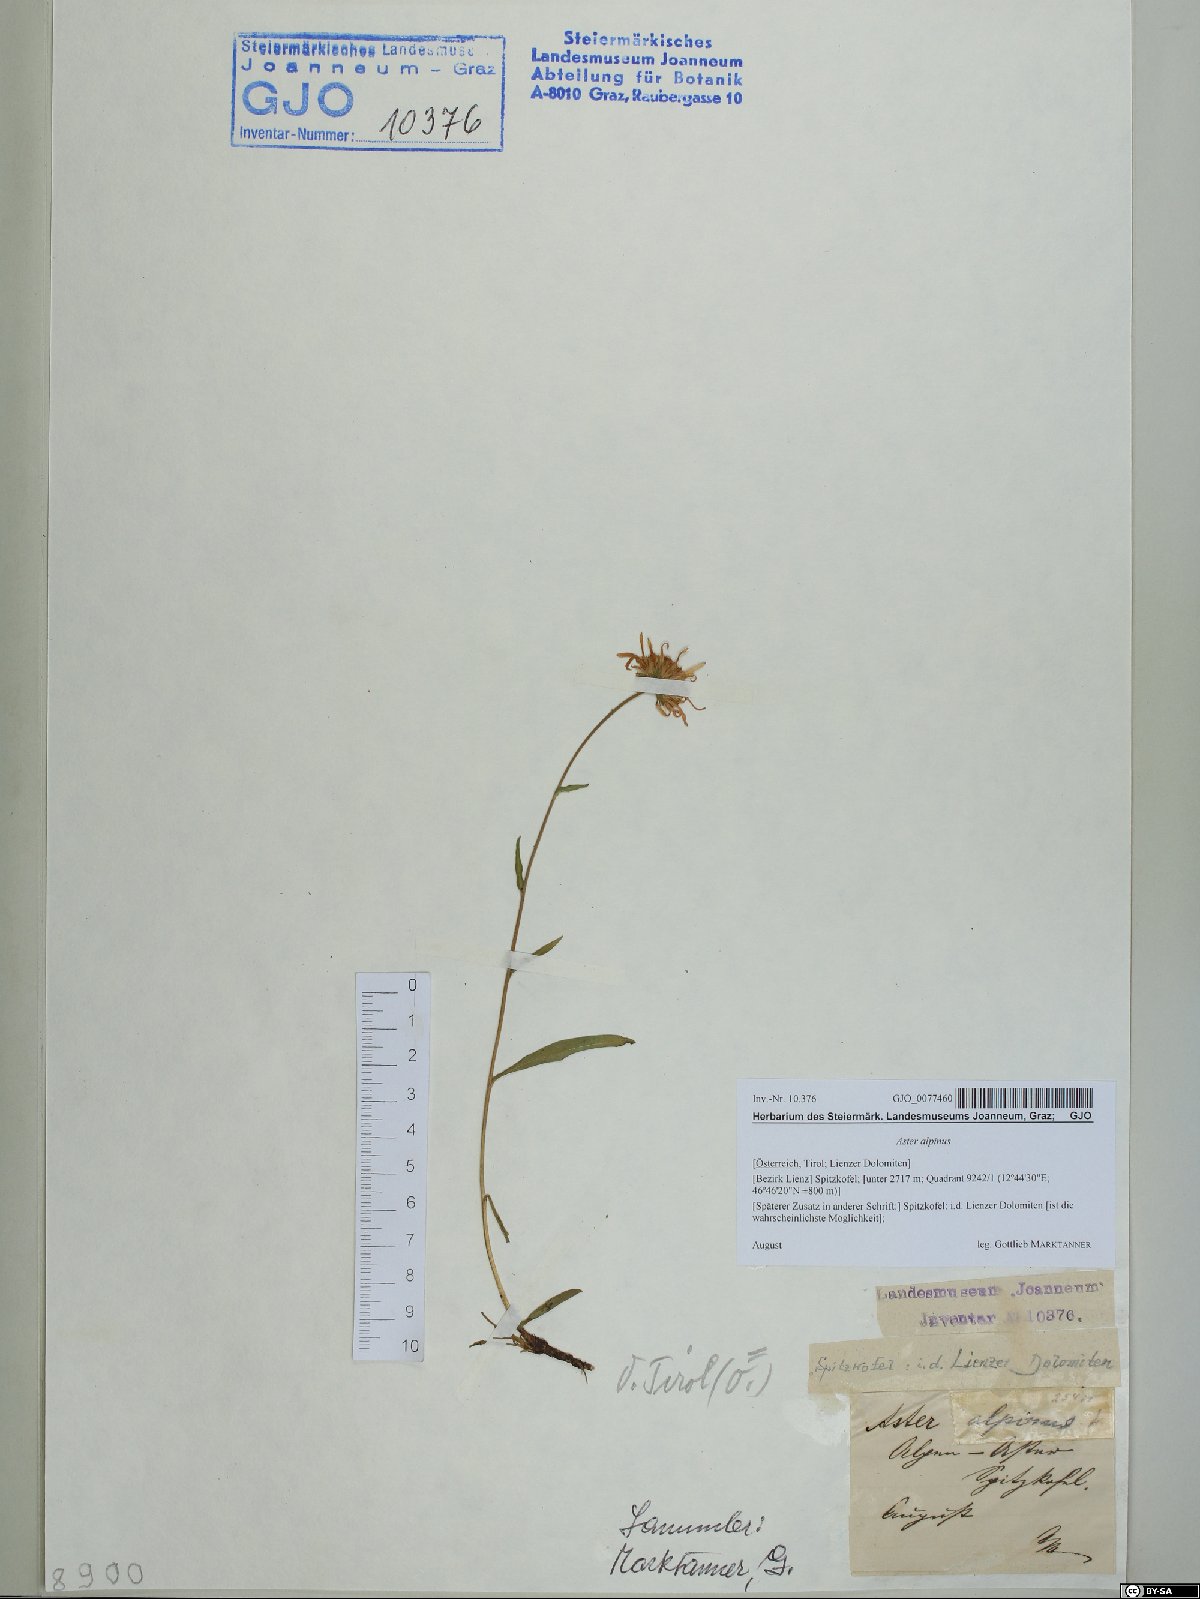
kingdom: Plantae
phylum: Tracheophyta
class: Magnoliopsida
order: Asterales
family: Asteraceae
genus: Aster
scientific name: Aster alpinus
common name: Alpine aster
